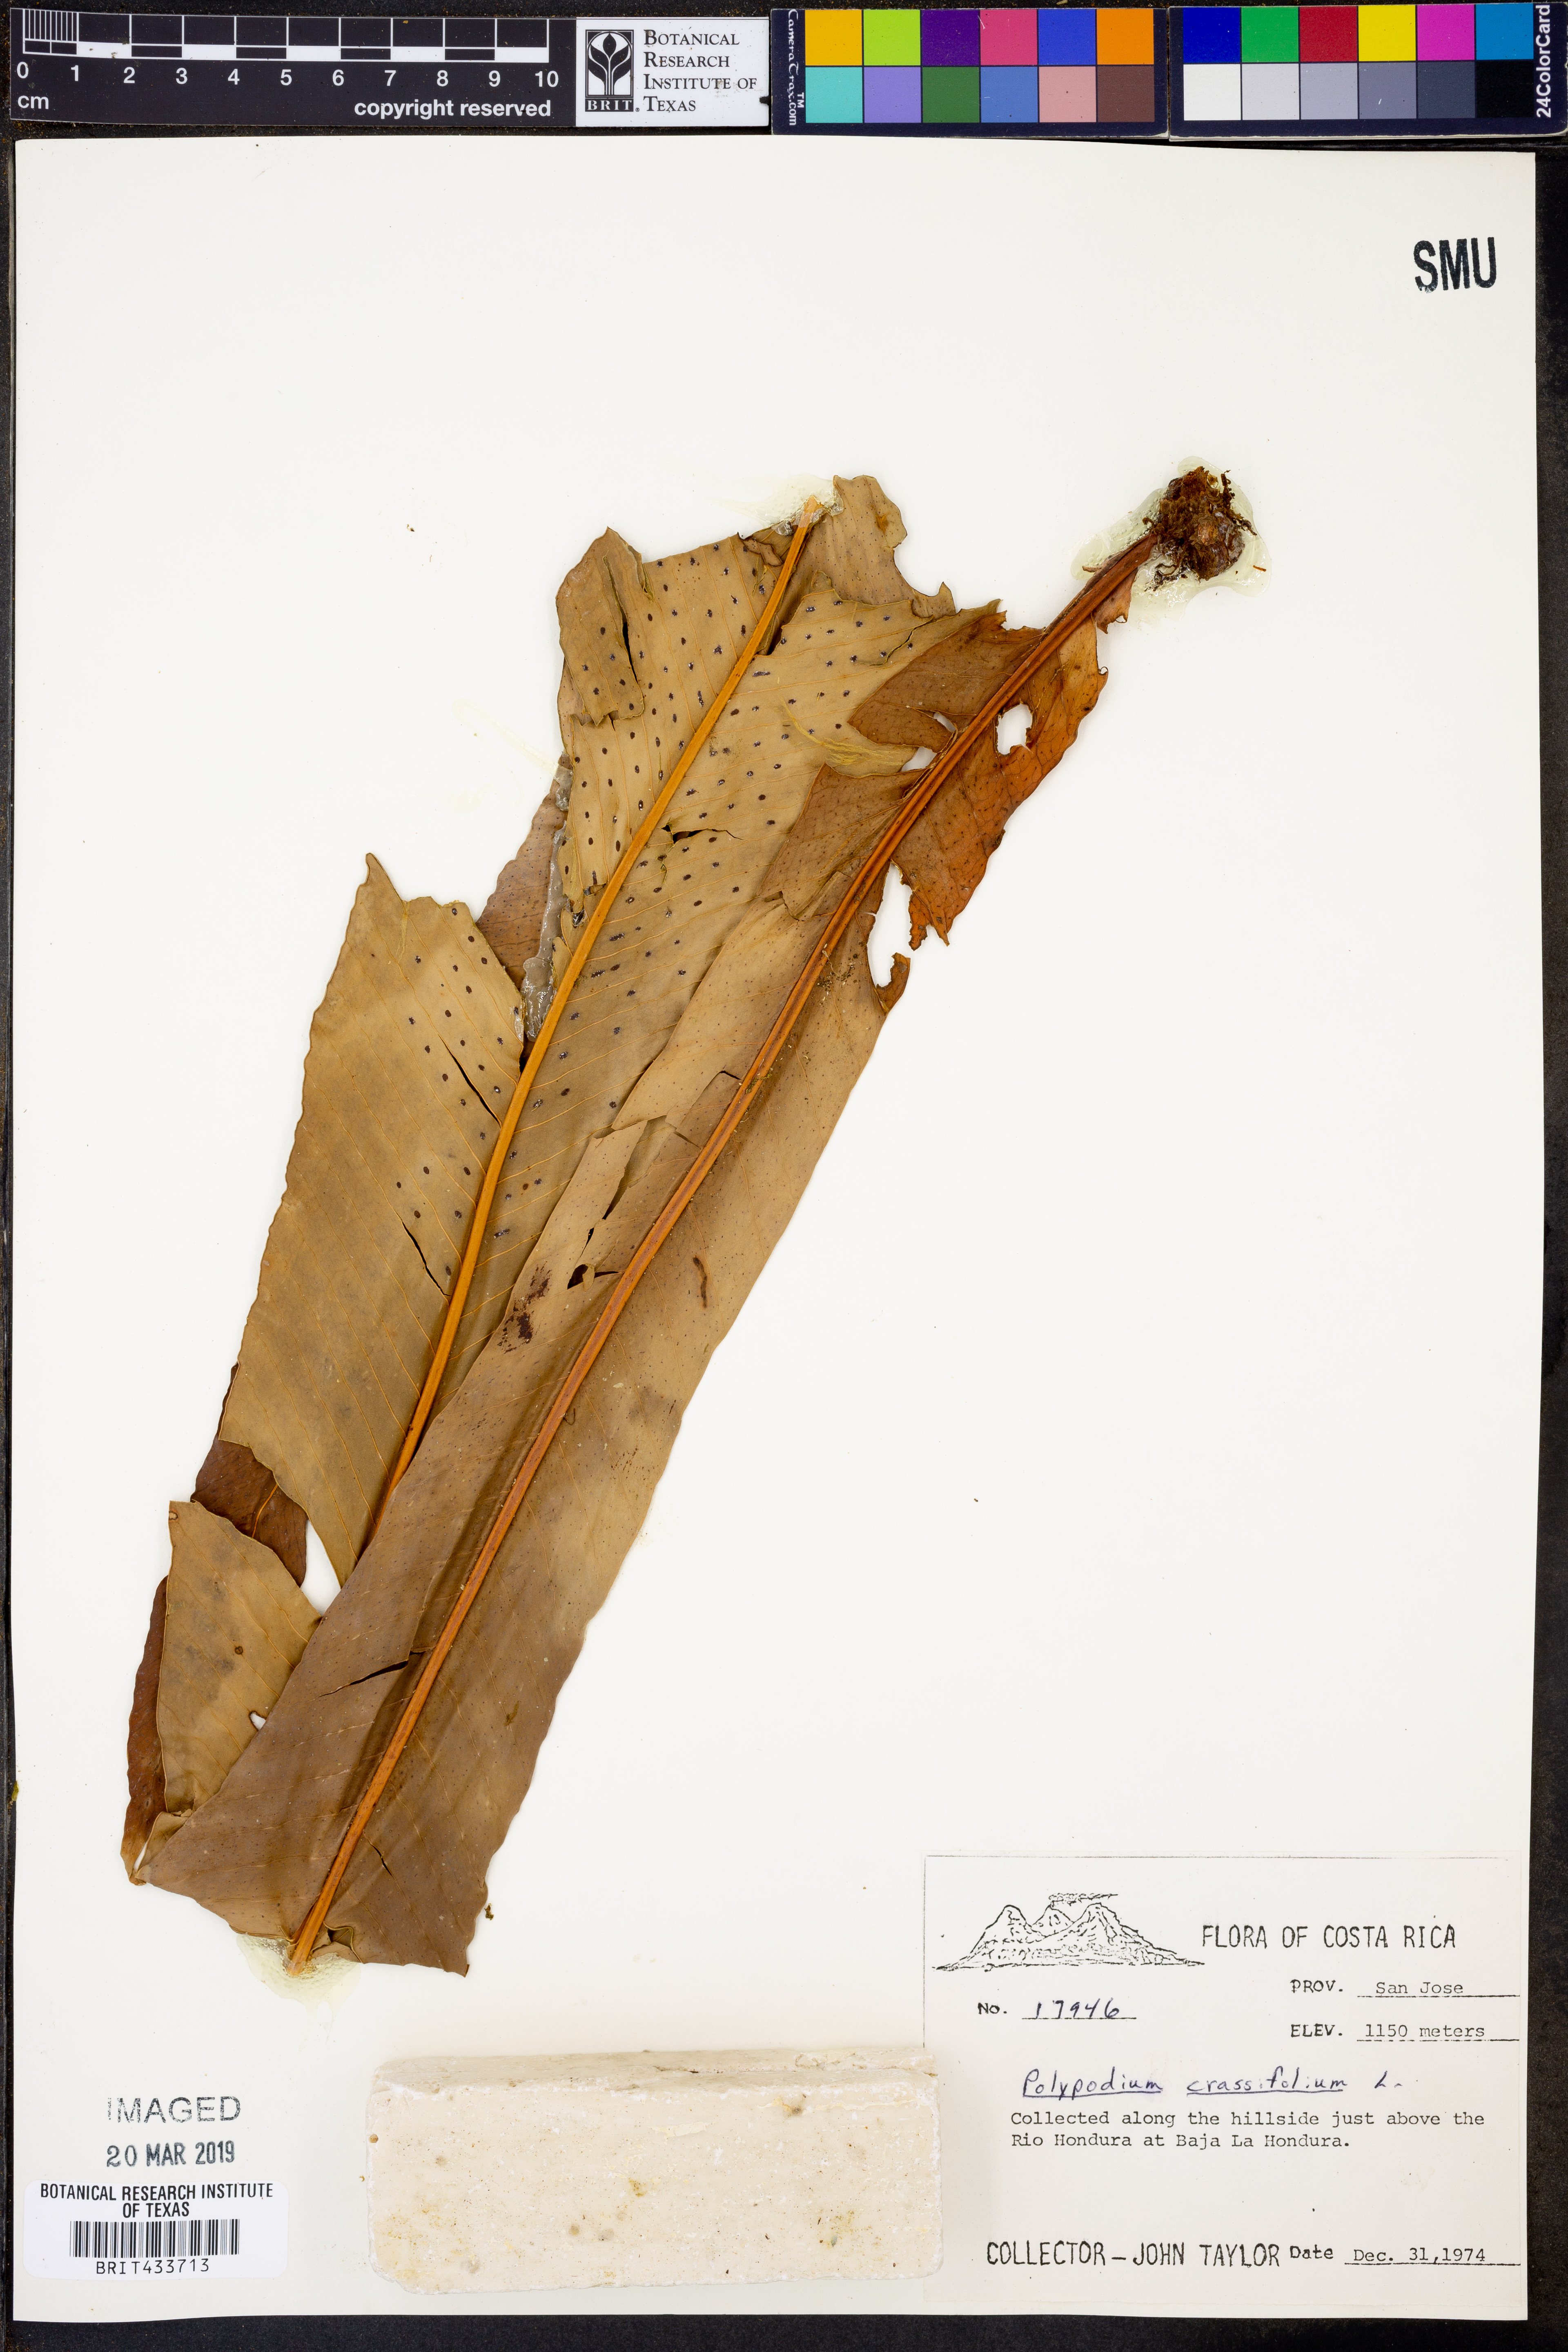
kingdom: Plantae
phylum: Tracheophyta
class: Polypodiopsida
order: Polypodiales
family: Polypodiaceae
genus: Niphidium
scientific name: Niphidium crassifolium
